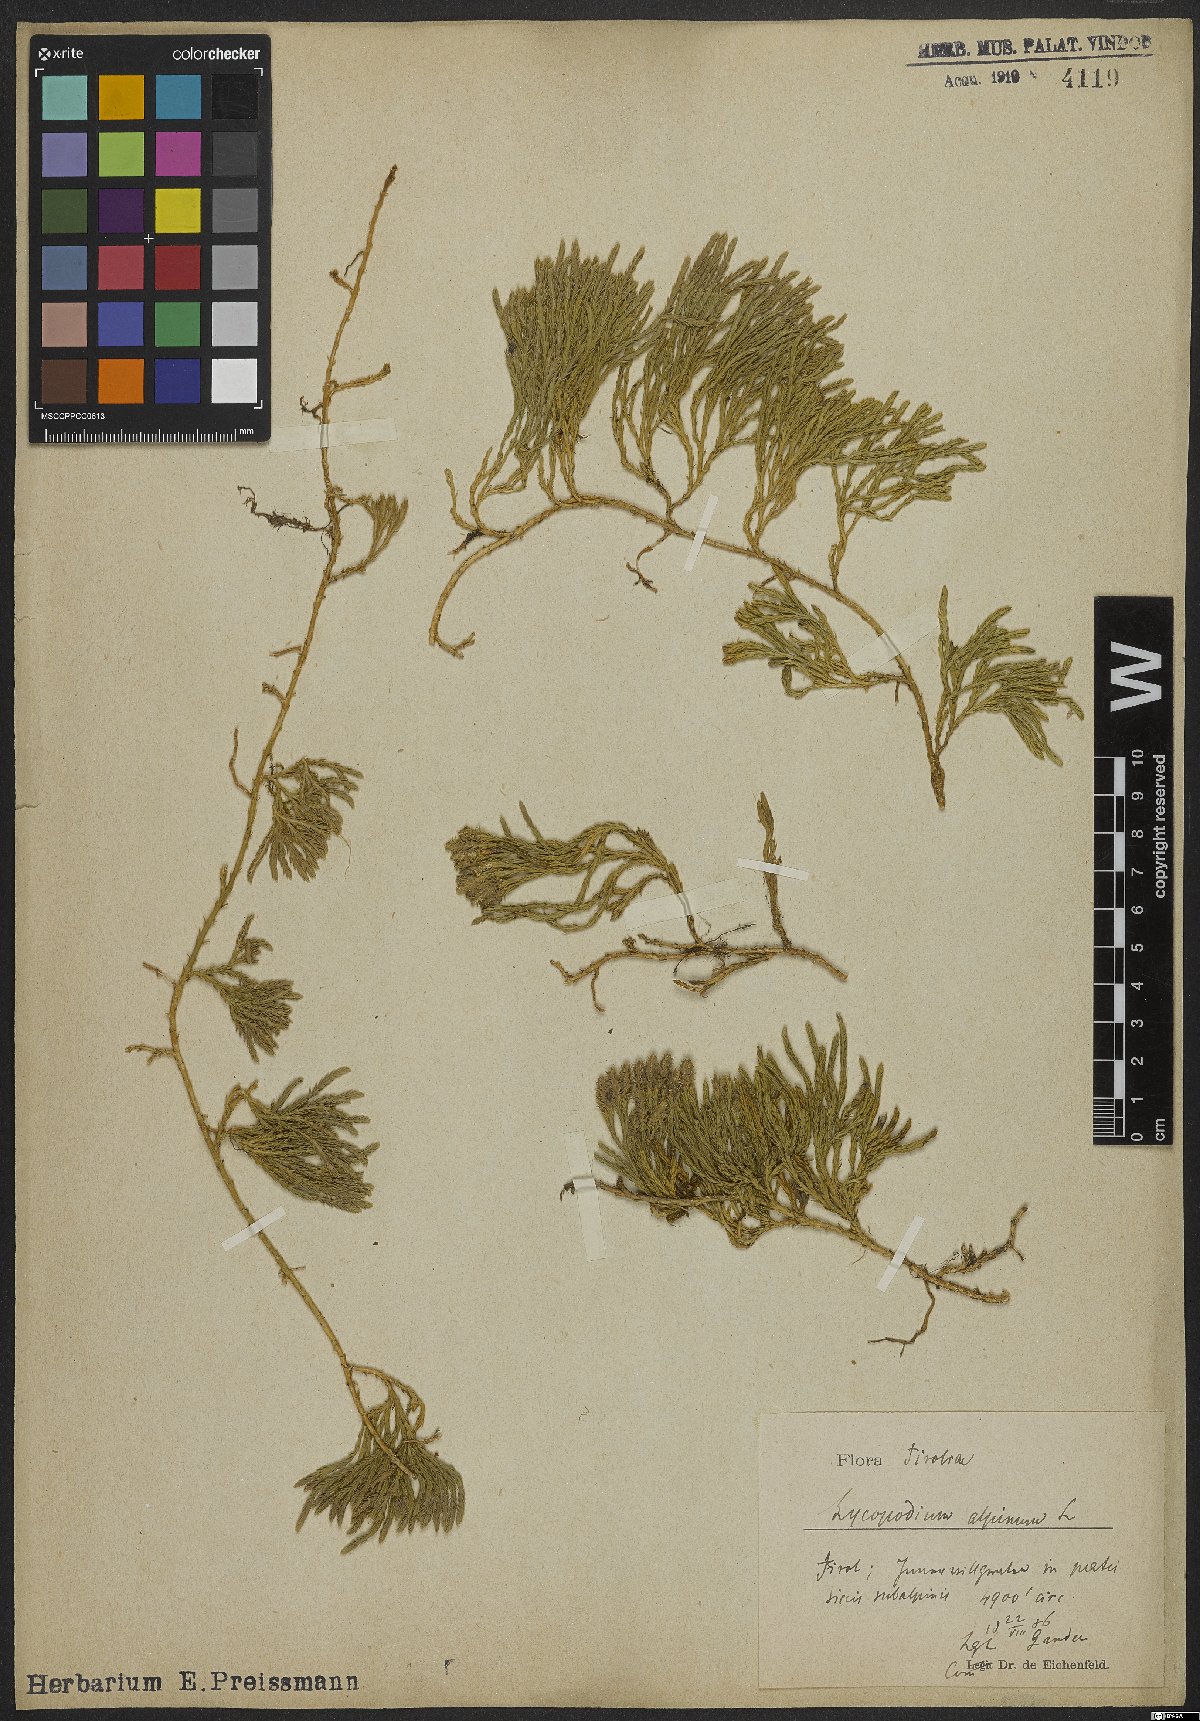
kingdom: Plantae
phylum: Tracheophyta
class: Lycopodiopsida
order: Lycopodiales
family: Lycopodiaceae
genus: Diphasiastrum
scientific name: Diphasiastrum alpinum
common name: Alpine clubmoss
